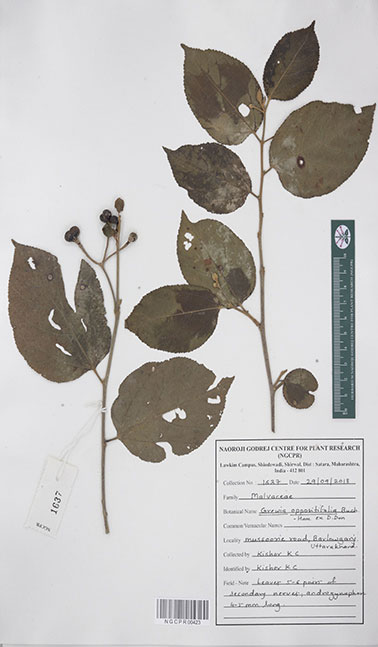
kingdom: Plantae
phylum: Tracheophyta
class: Magnoliopsida
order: Malvales
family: Malvaceae
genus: Grewia
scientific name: Grewia oppositifolia
